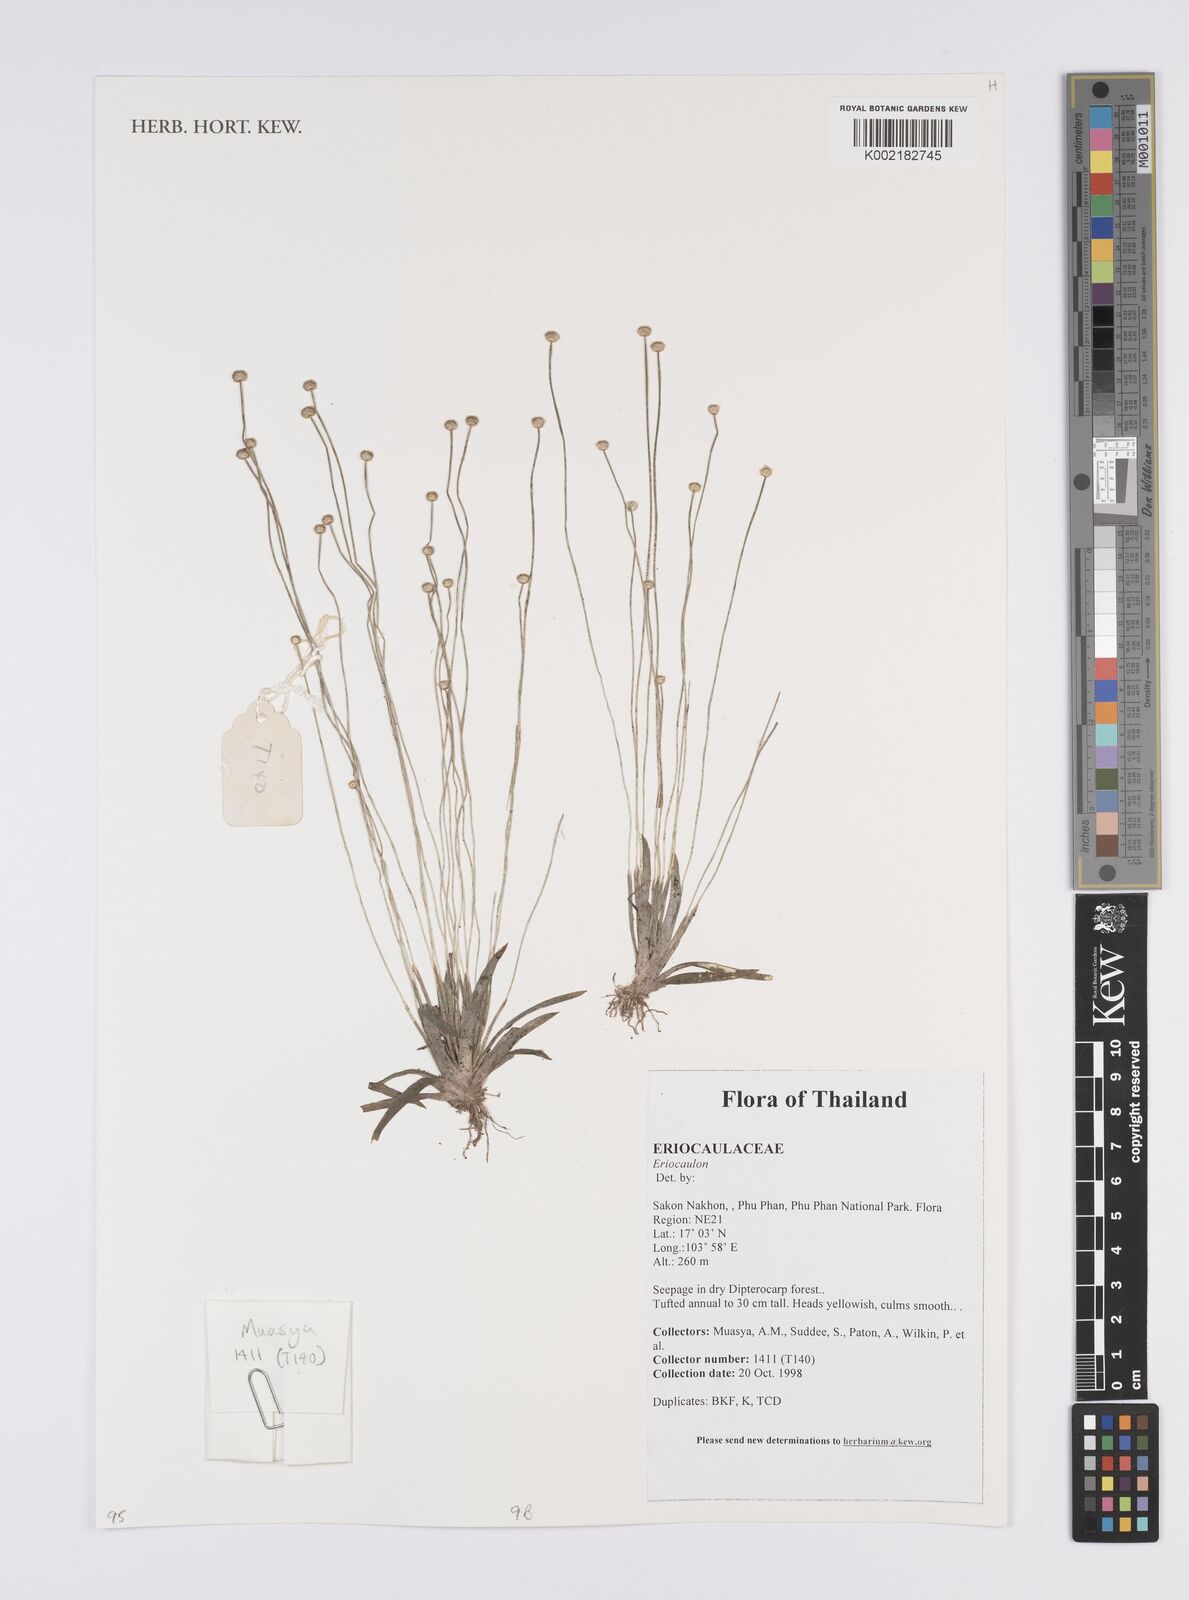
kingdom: Plantae
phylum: Tracheophyta
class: Liliopsida
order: Poales
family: Eriocaulaceae
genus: Eriocaulon
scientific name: Eriocaulon
